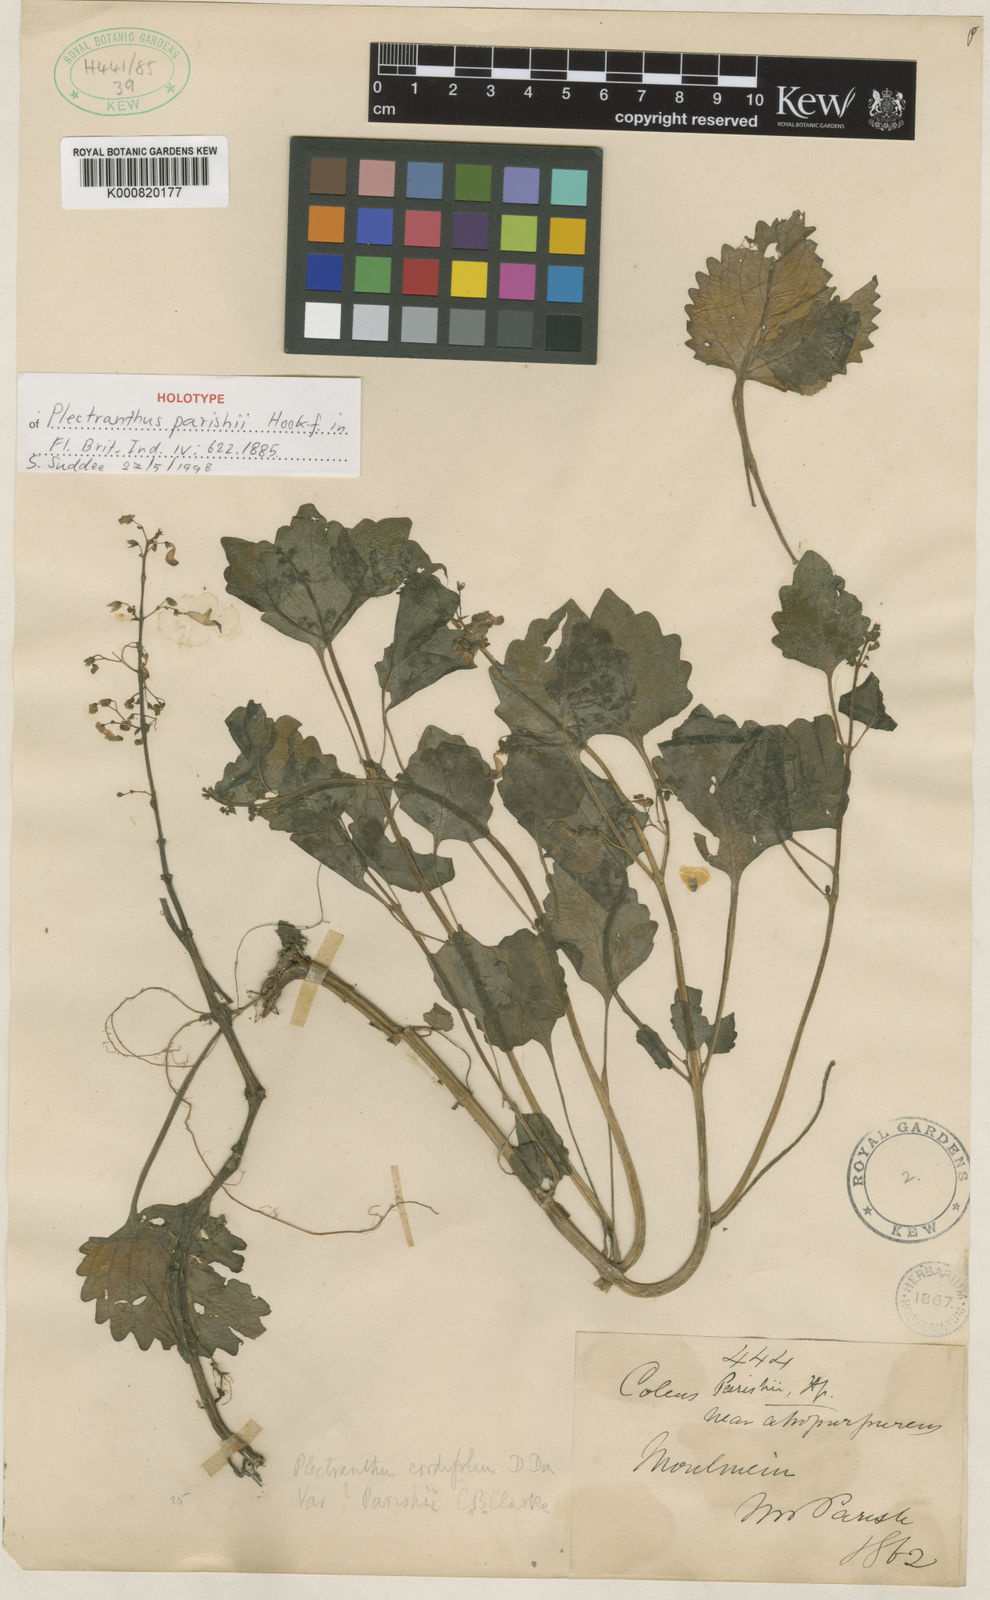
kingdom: Plantae
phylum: Tracheophyta
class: Magnoliopsida
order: Lamiales
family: Lamiaceae
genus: Coleus
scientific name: Coleus parishii
